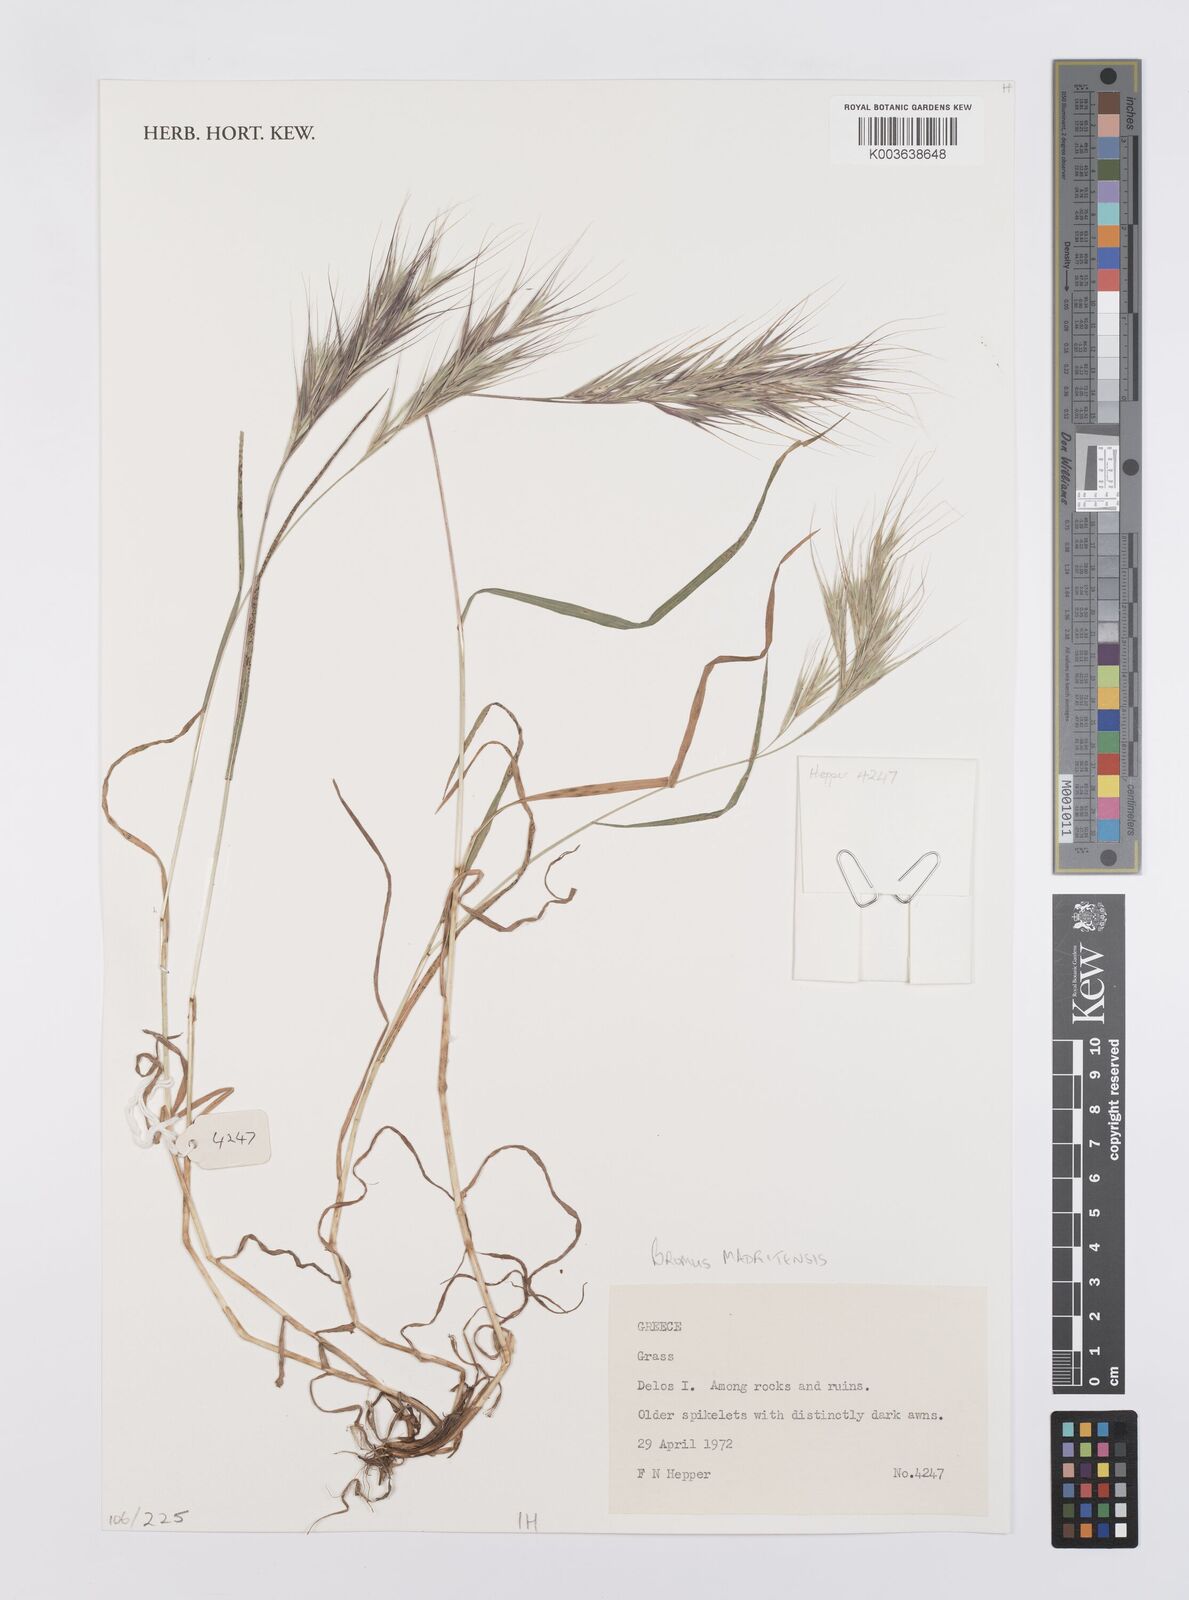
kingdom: Plantae
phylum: Tracheophyta
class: Liliopsida
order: Poales
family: Poaceae
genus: Bromus
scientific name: Bromus madritensis
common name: Compact brome
